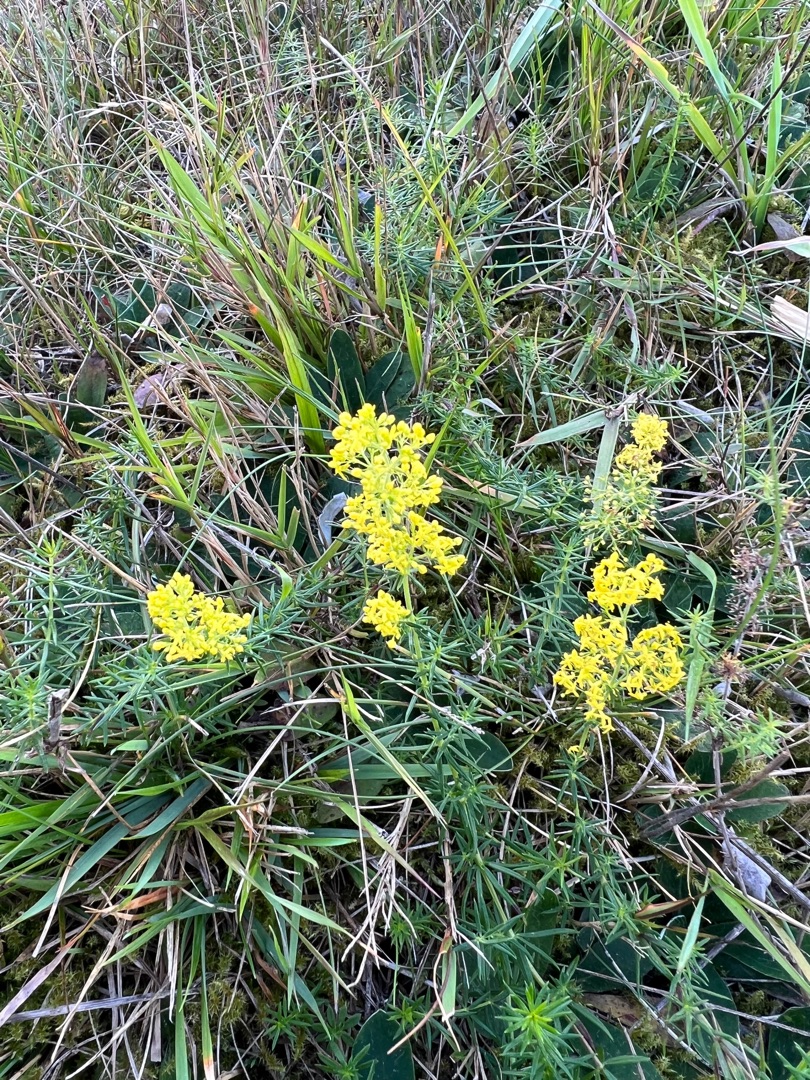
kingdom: Plantae
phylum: Tracheophyta
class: Magnoliopsida
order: Gentianales
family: Rubiaceae
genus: Galium
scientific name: Galium verum
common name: Gul snerre
